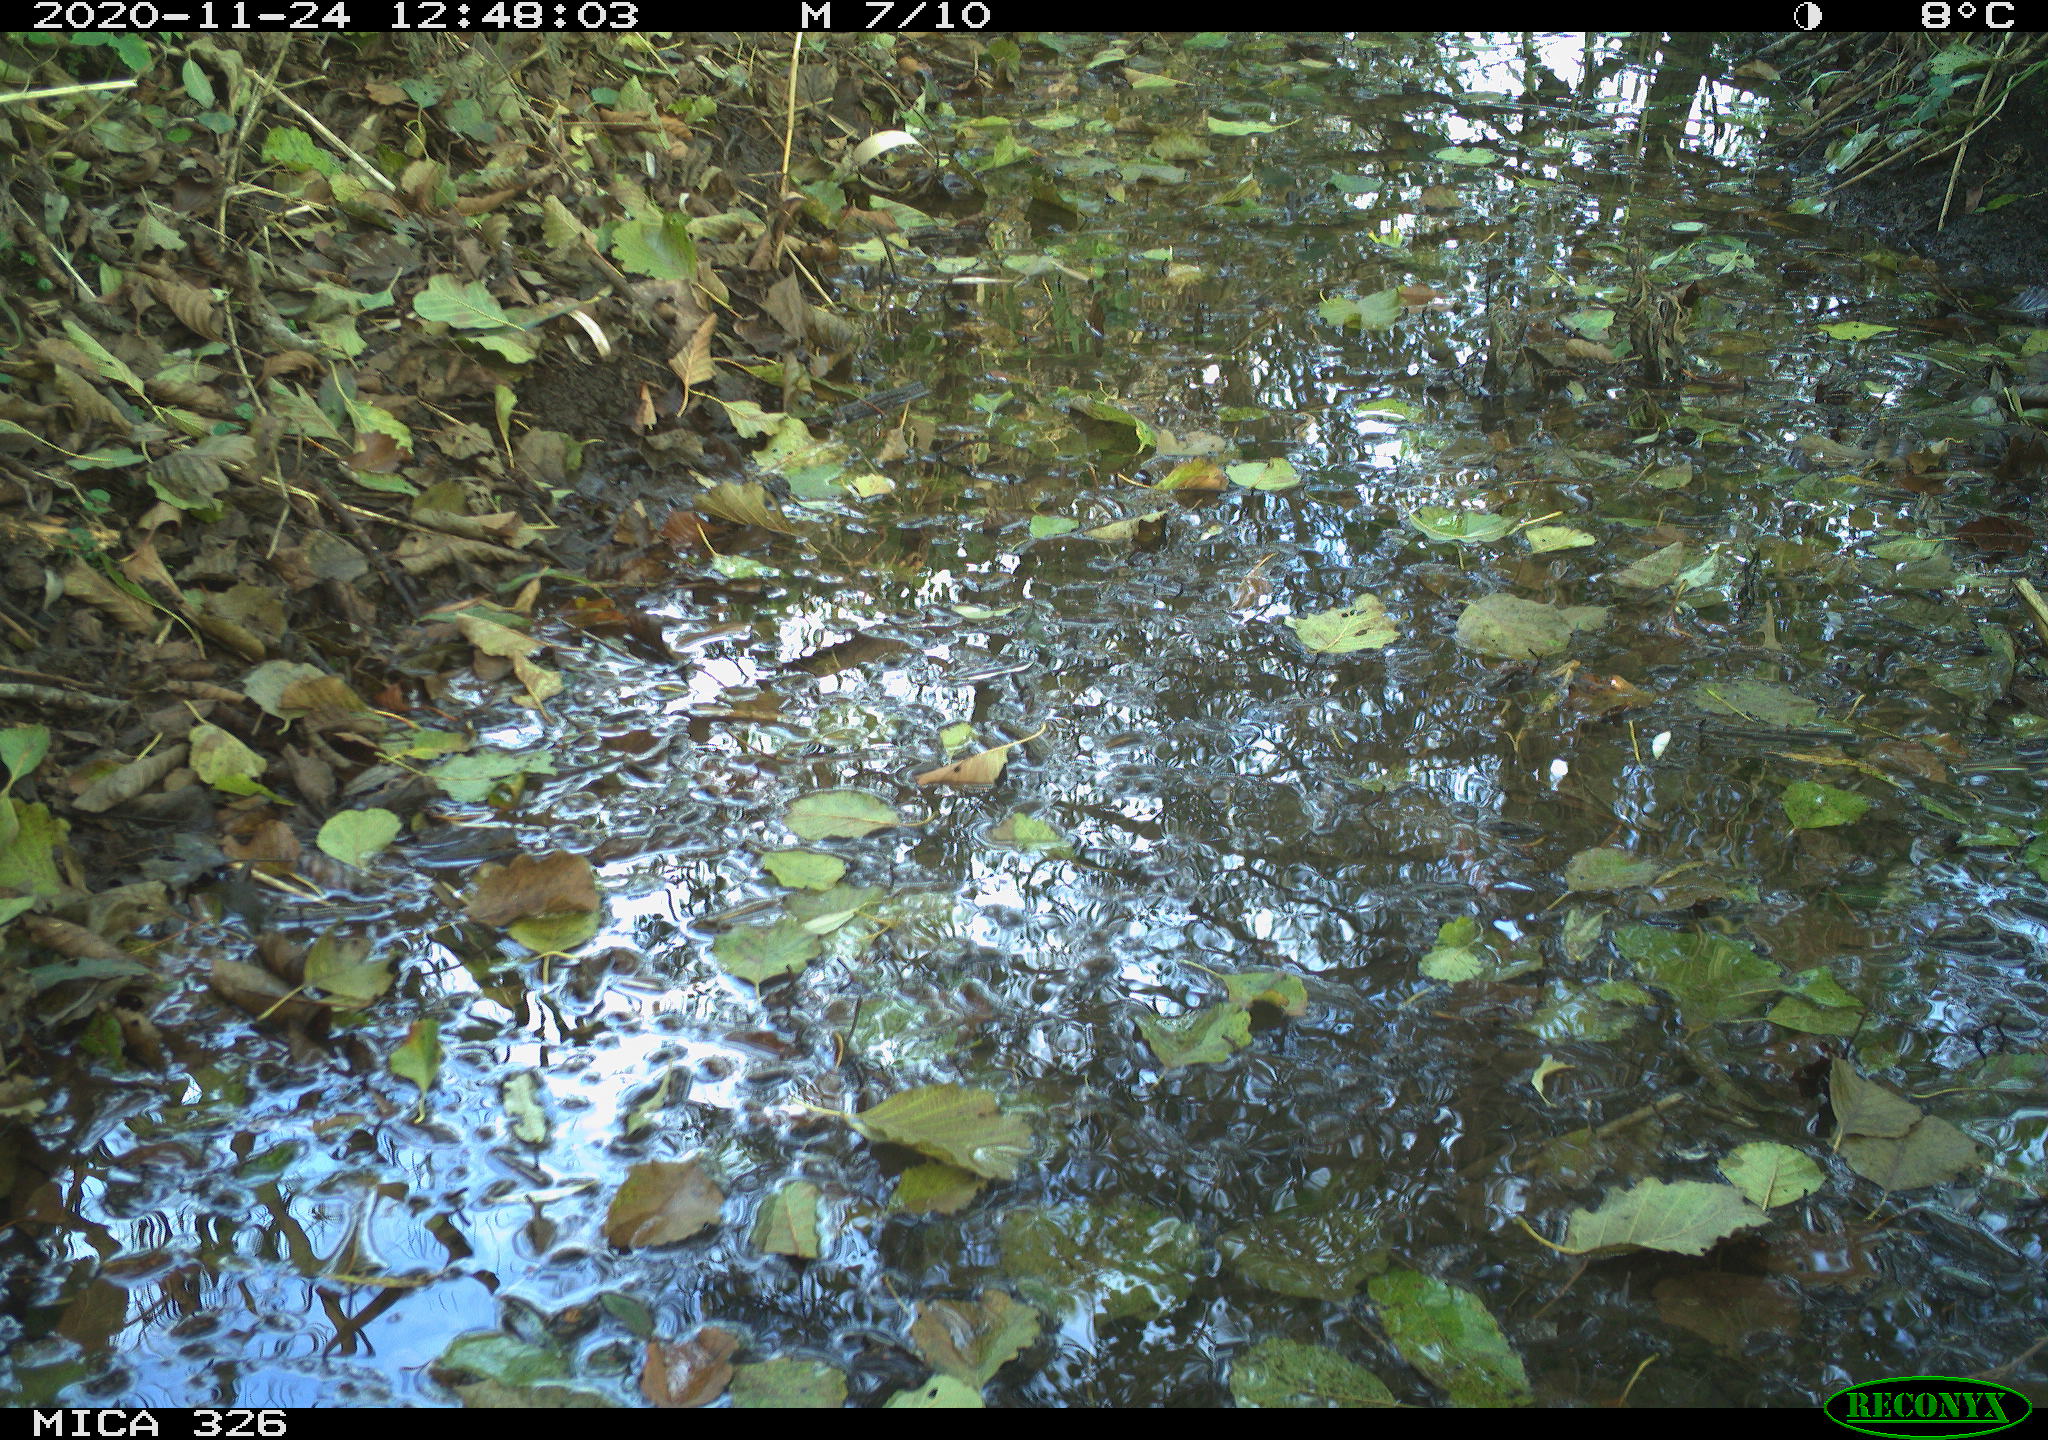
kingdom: Animalia
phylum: Chordata
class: Aves
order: Passeriformes
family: Fringillidae
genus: Fringilla
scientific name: Fringilla coelebs
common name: Common chaffinch
